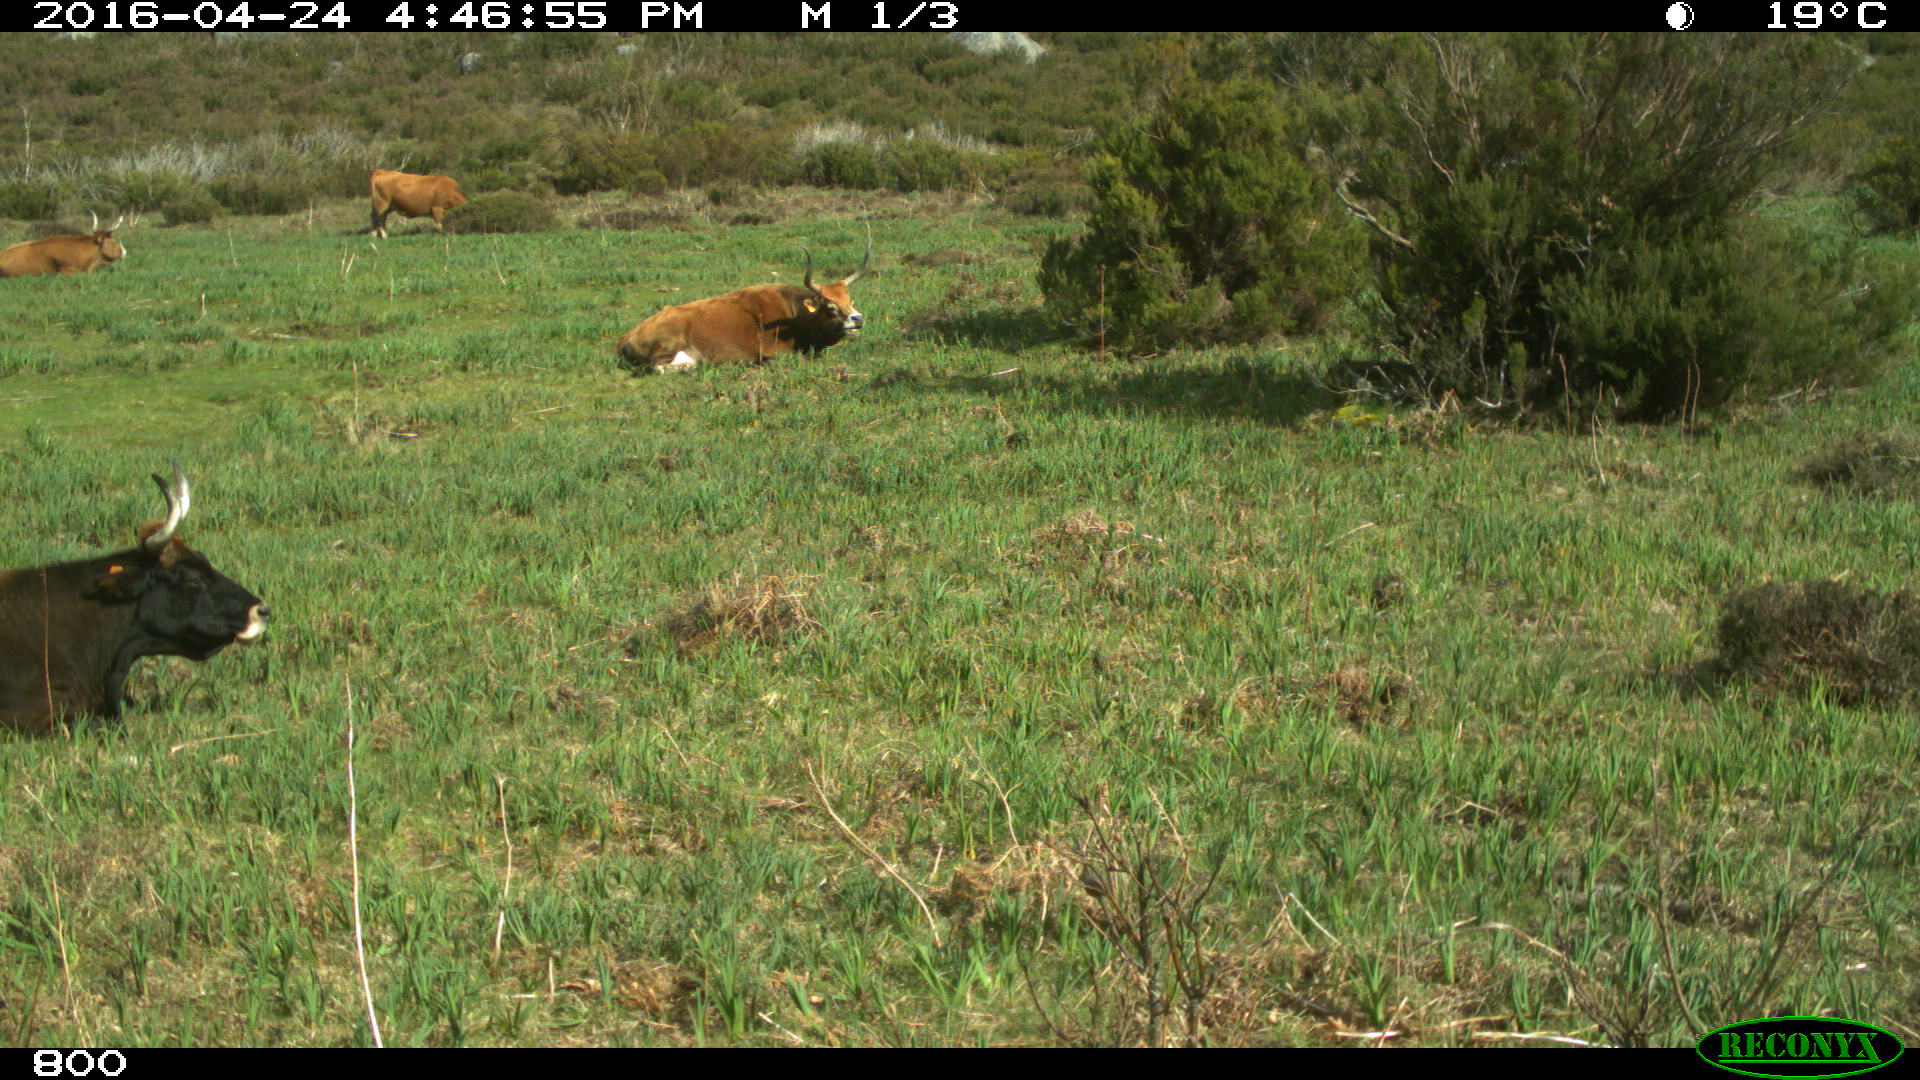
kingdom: Animalia
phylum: Chordata
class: Mammalia
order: Artiodactyla
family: Bovidae
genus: Bos
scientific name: Bos taurus
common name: Domesticated cattle
